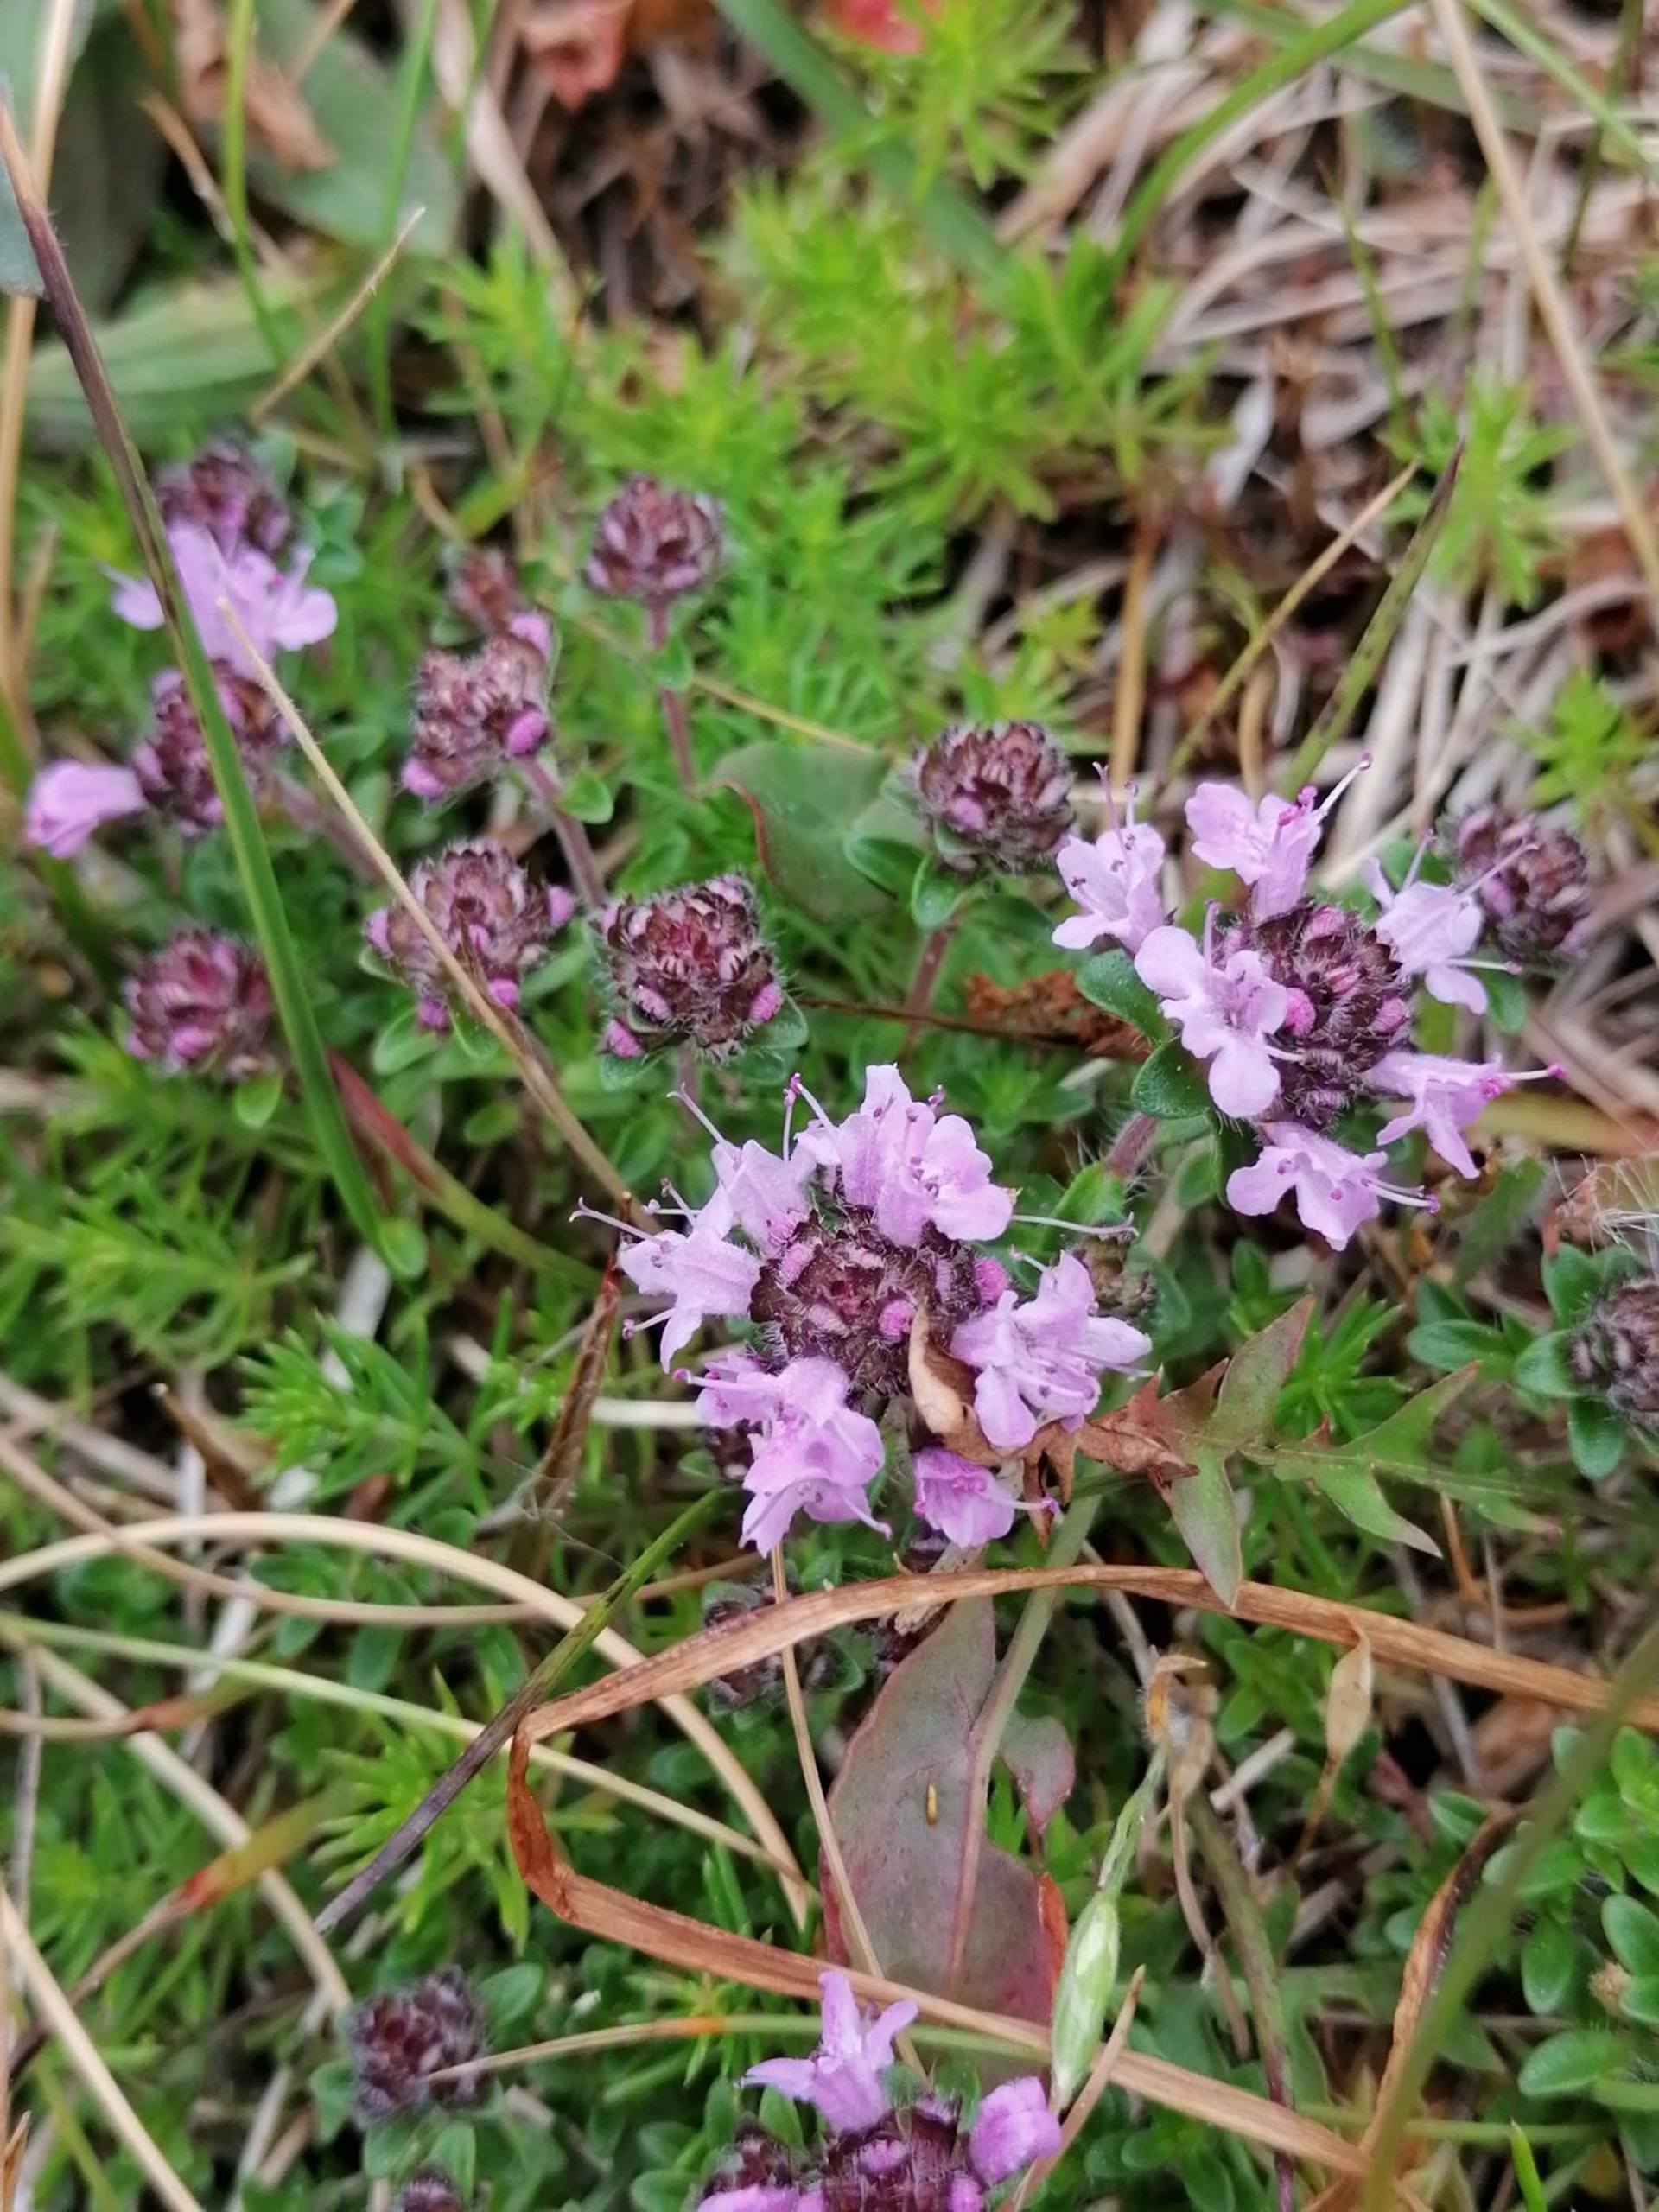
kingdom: Plantae
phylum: Tracheophyta
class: Magnoliopsida
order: Lamiales
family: Lamiaceae
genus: Thymus
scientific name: Thymus serpyllum
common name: Smalbladet timian
